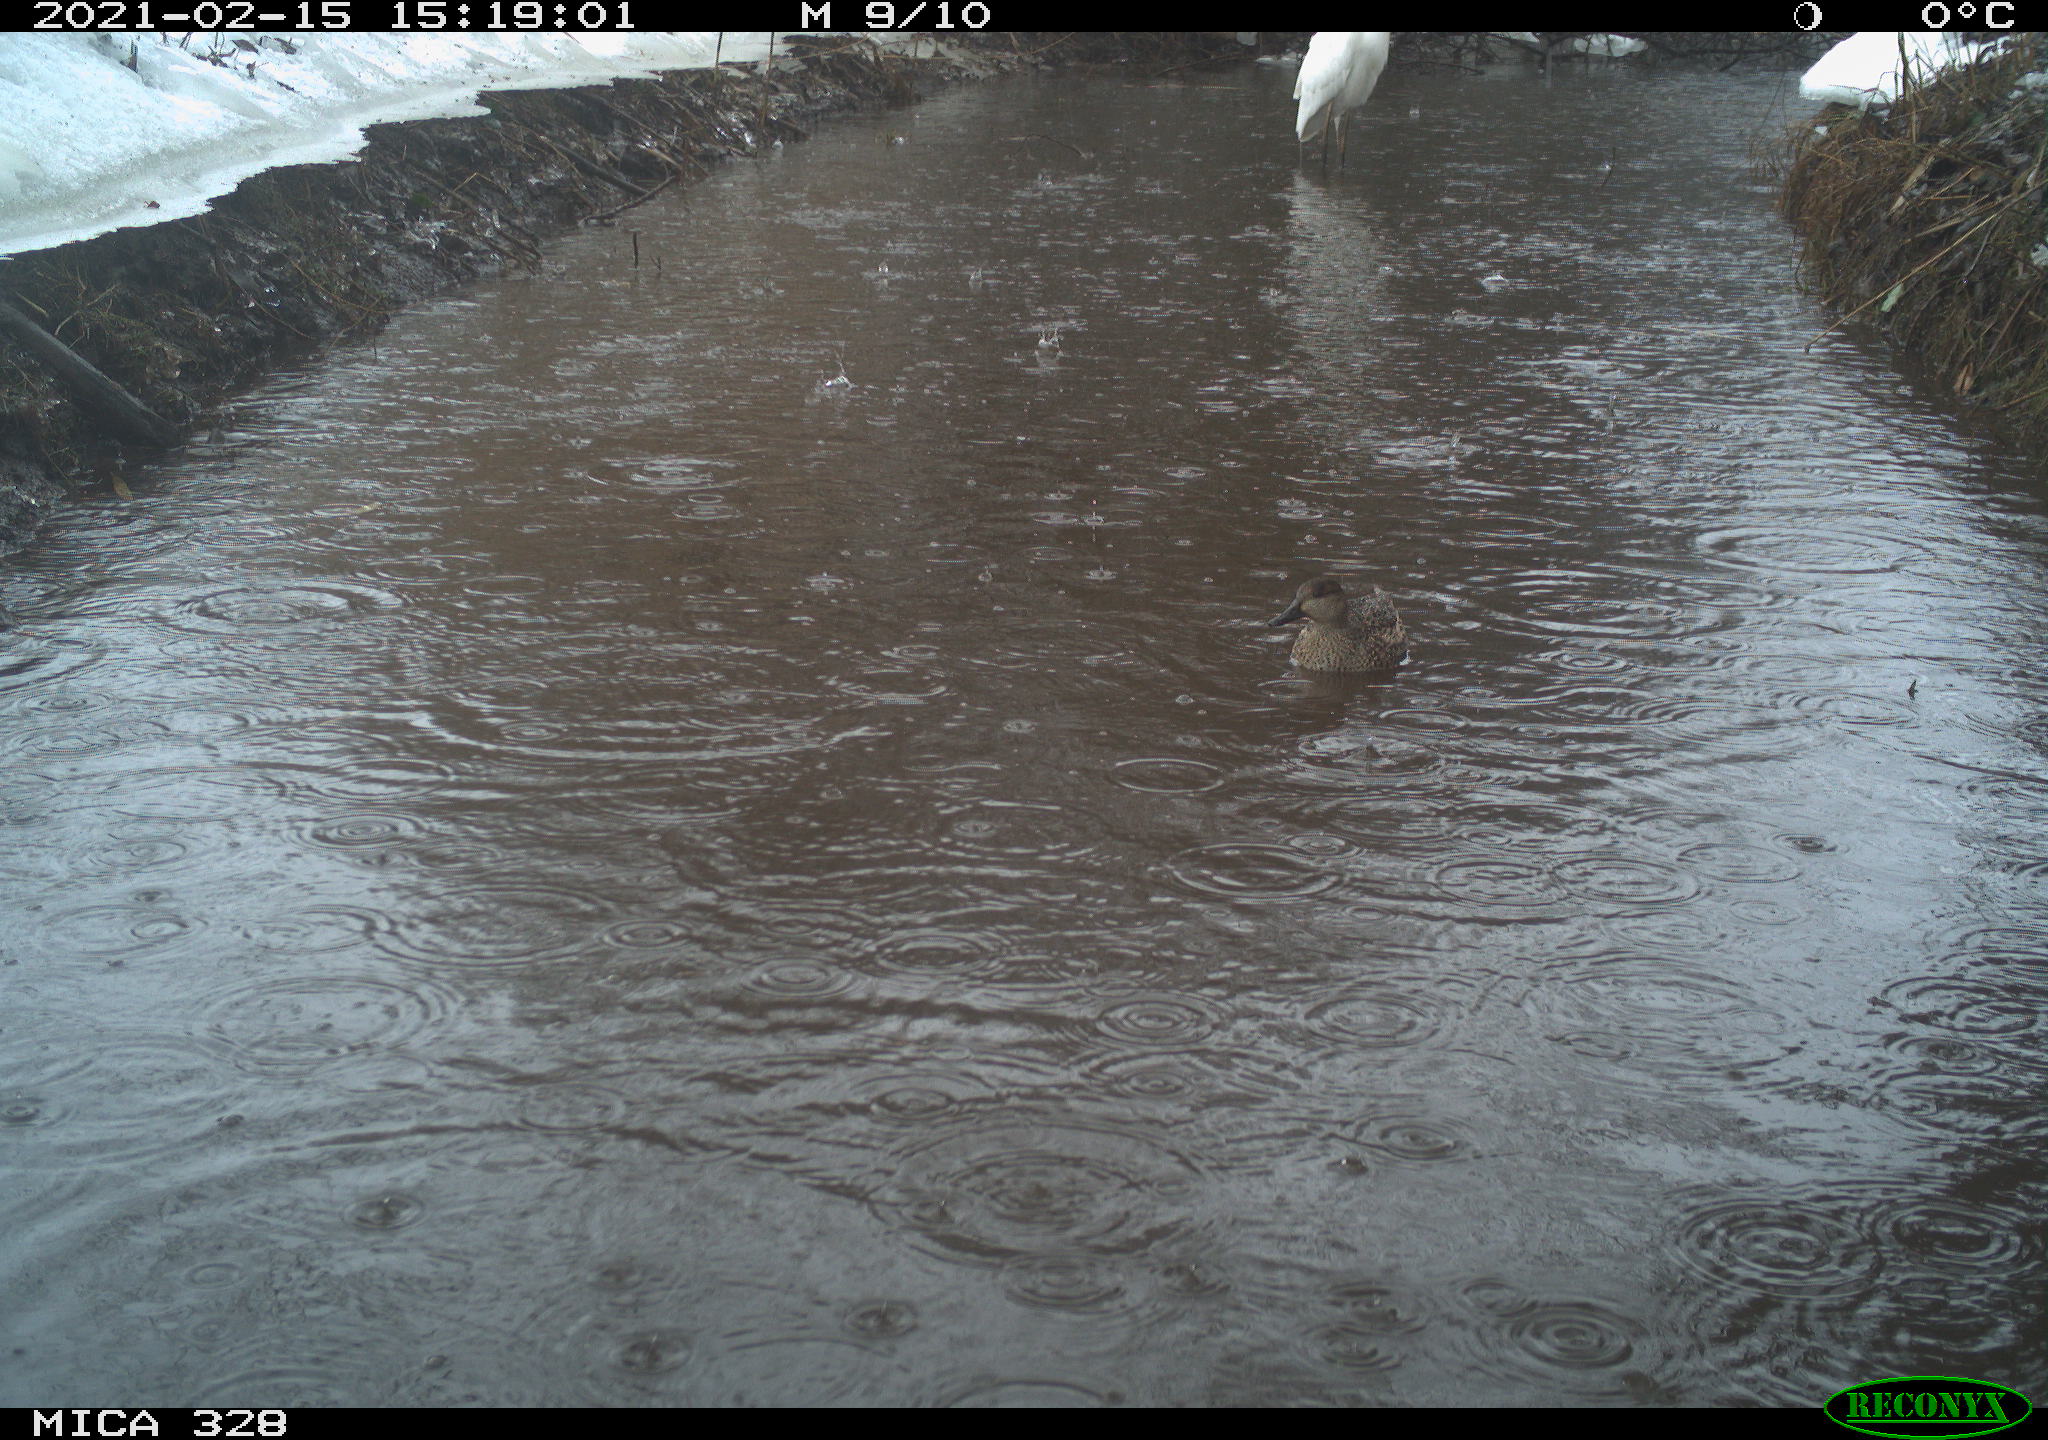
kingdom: Animalia
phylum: Chordata
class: Aves
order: Pelecaniformes
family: Ardeidae
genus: Ardea
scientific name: Ardea alba
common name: Great egret
